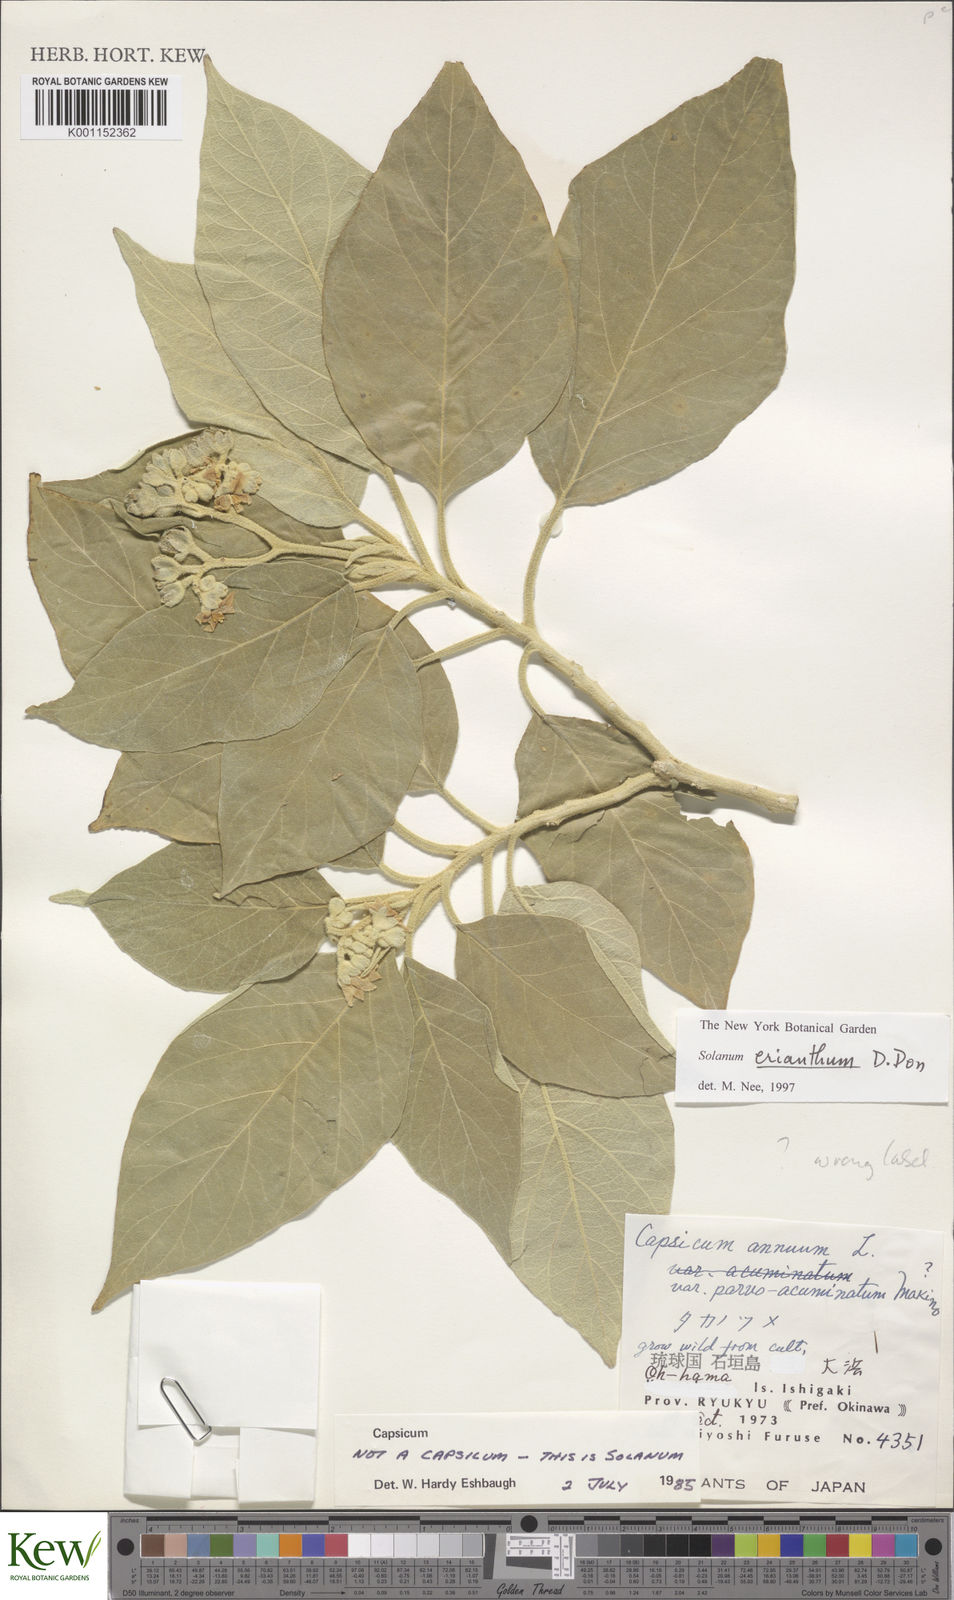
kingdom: Plantae
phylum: Tracheophyta
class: Magnoliopsida
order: Solanales
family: Solanaceae
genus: Solanum
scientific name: Solanum erianthum
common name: Tobacco-tree
